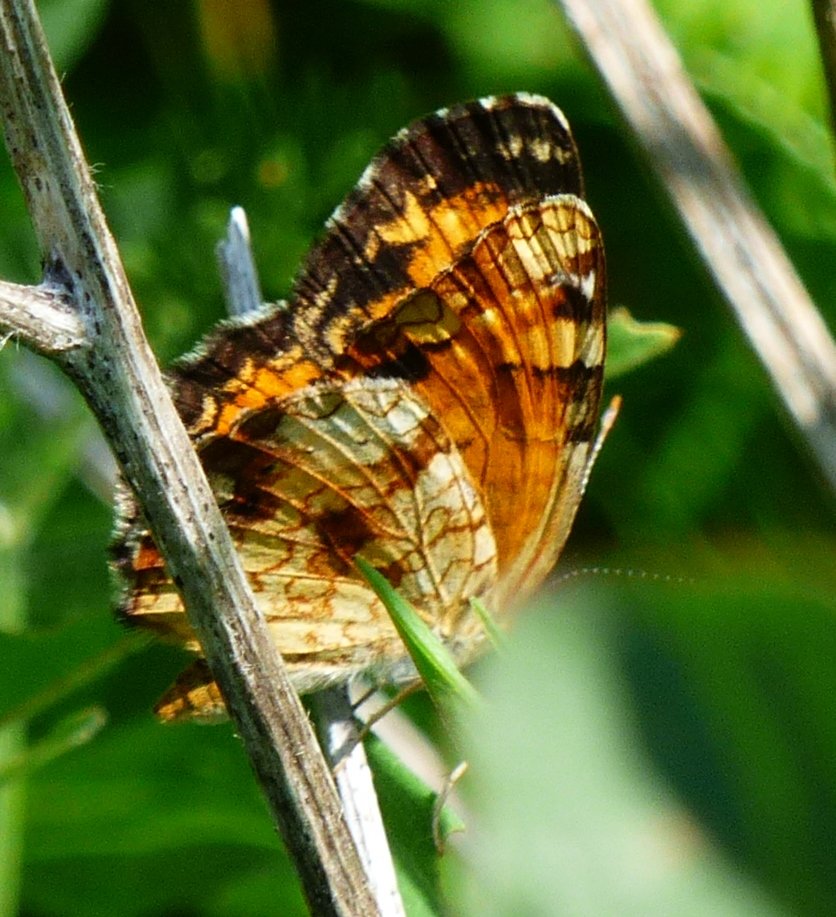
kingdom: Animalia
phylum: Arthropoda
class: Insecta
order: Lepidoptera
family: Nymphalidae
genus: Phyciodes
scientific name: Phyciodes tharos
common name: Northern Crescent
